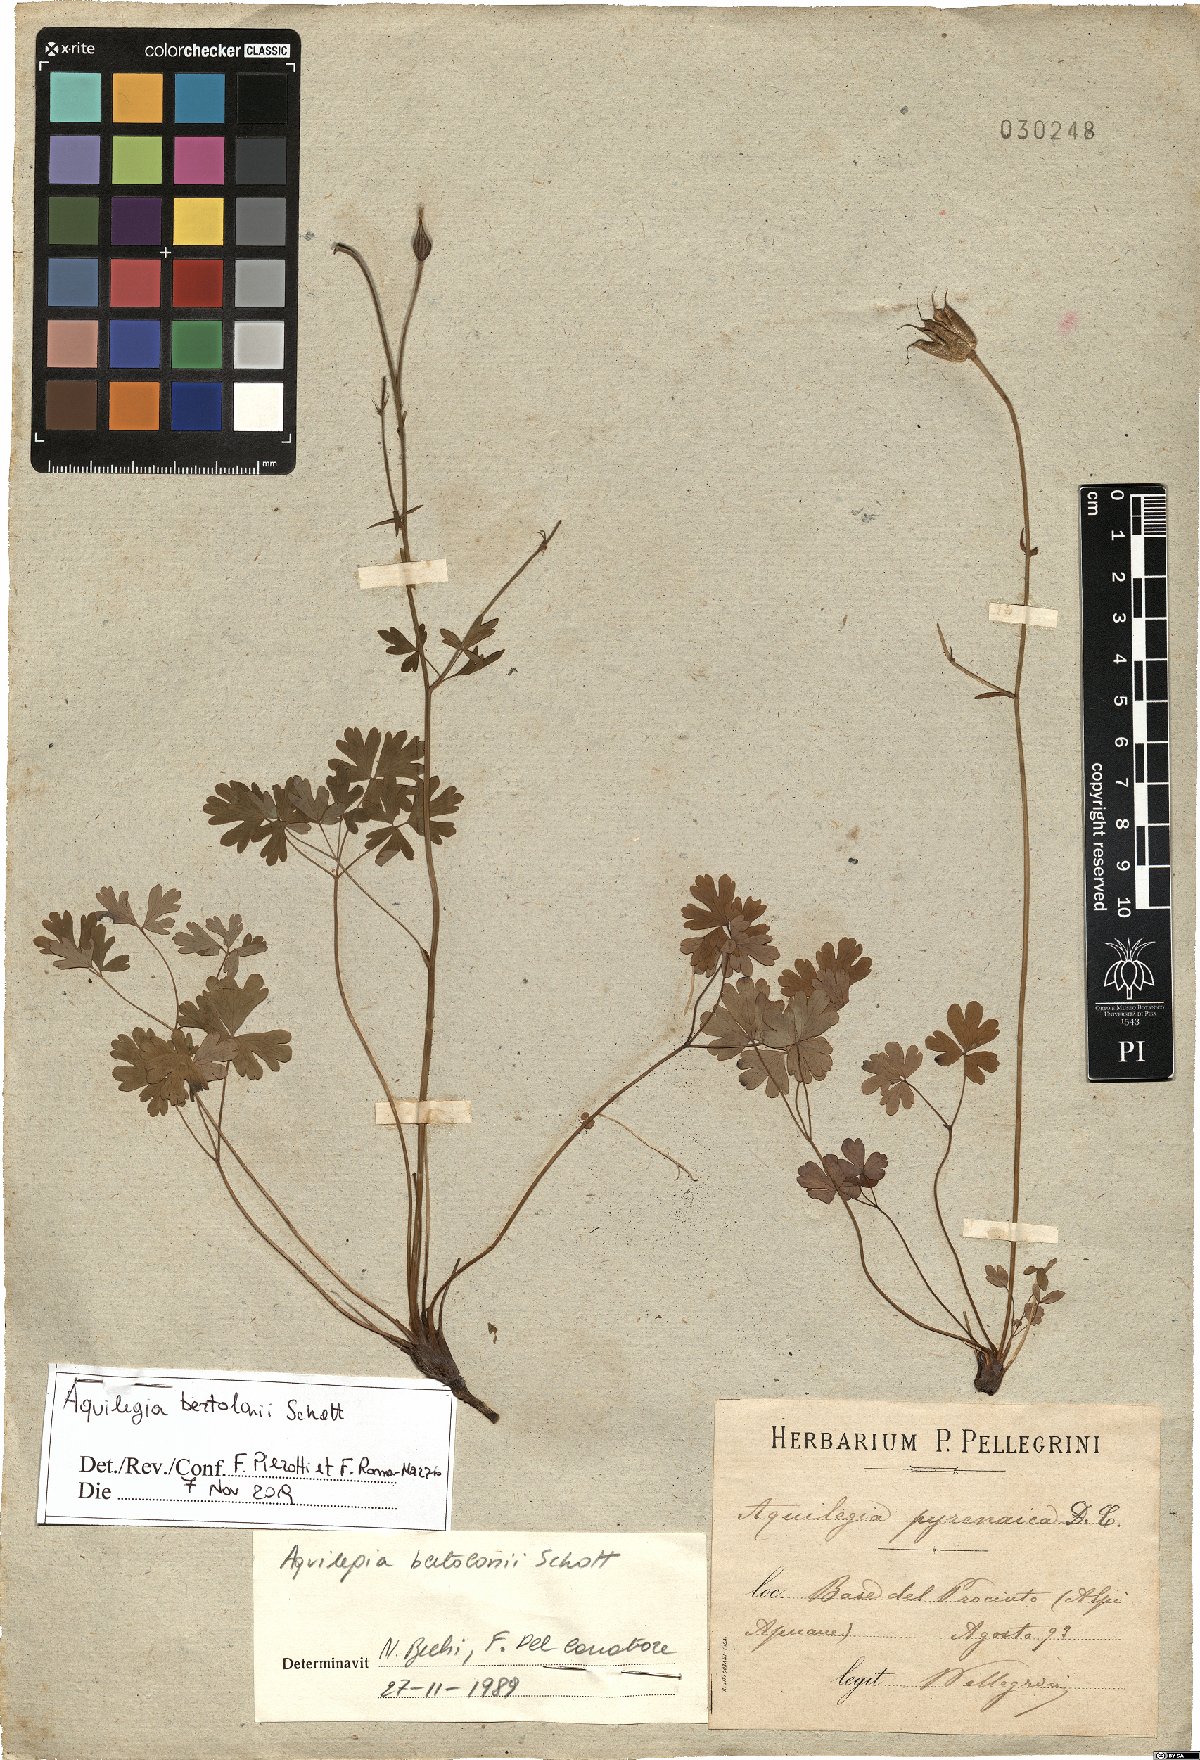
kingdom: Plantae
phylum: Tracheophyta
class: Magnoliopsida
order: Ranunculales
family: Ranunculaceae
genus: Aquilegia
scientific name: Aquilegia bertolonii
